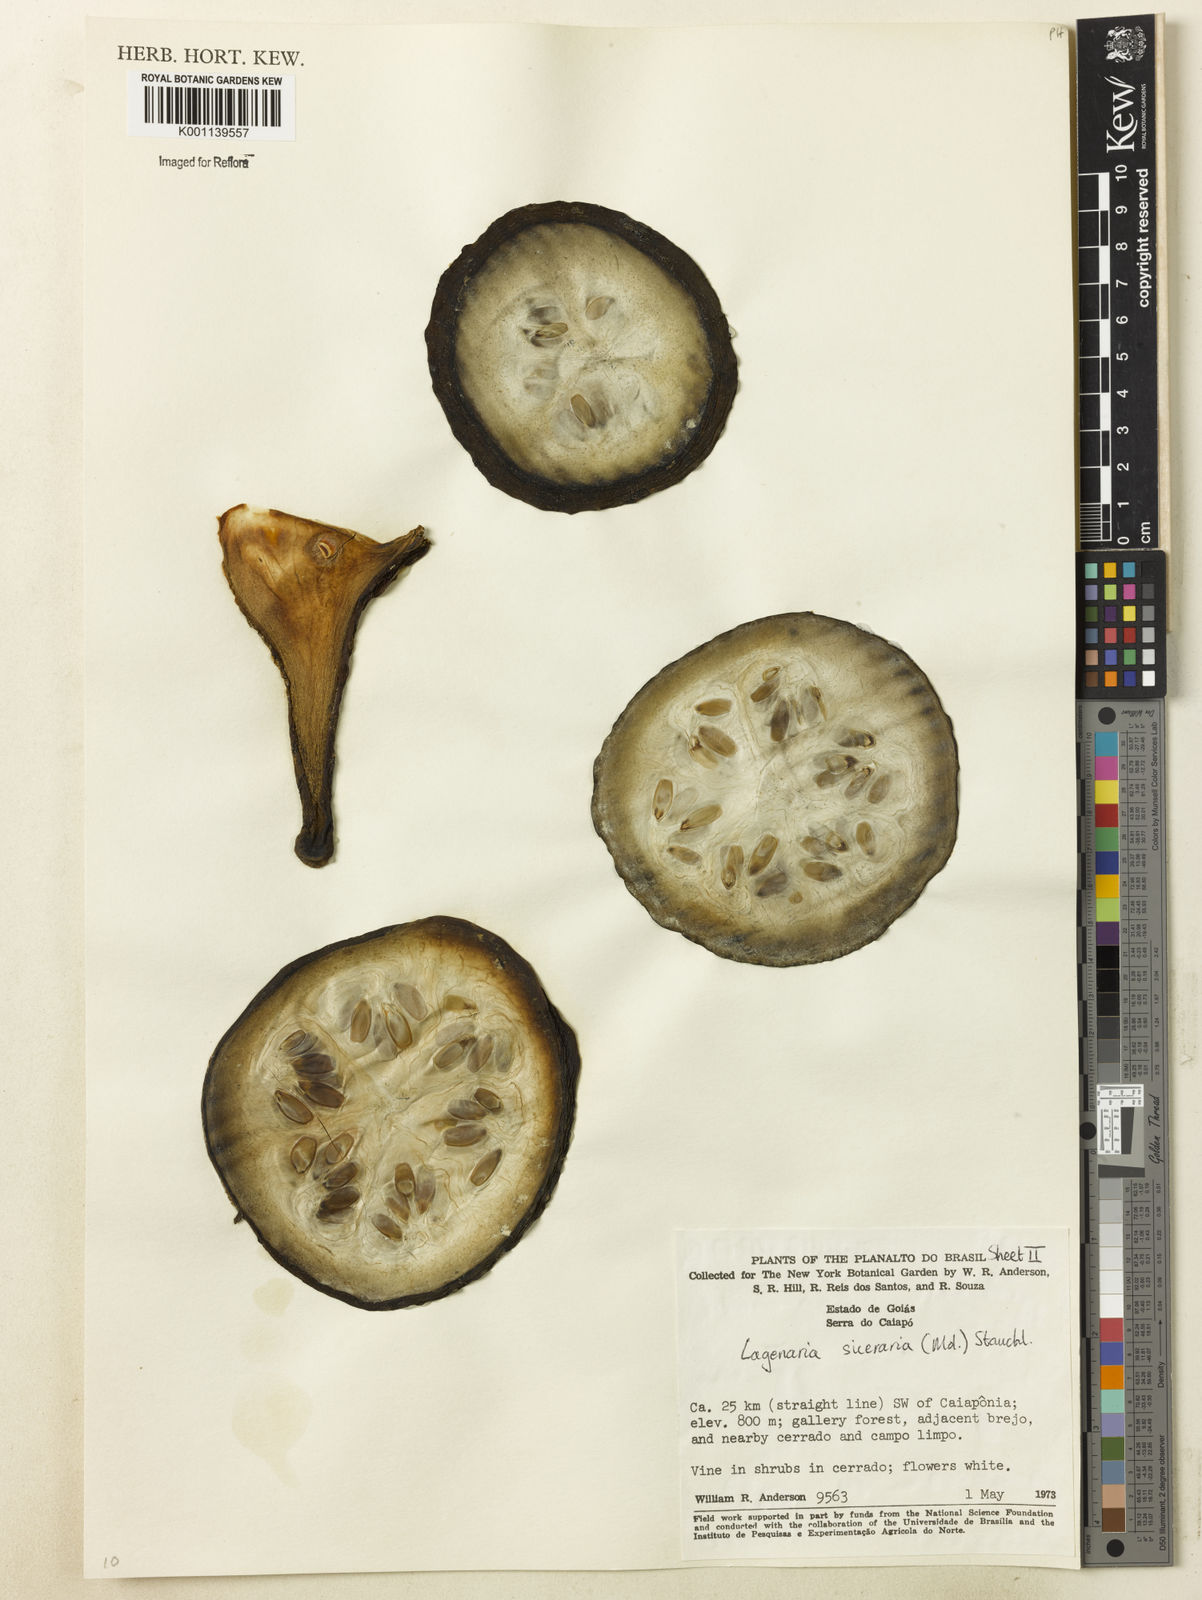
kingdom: Plantae
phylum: Tracheophyta
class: Magnoliopsida
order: Cucurbitales
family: Cucurbitaceae
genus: Lagenaria
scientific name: Lagenaria siceraria
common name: Bottle gourd
